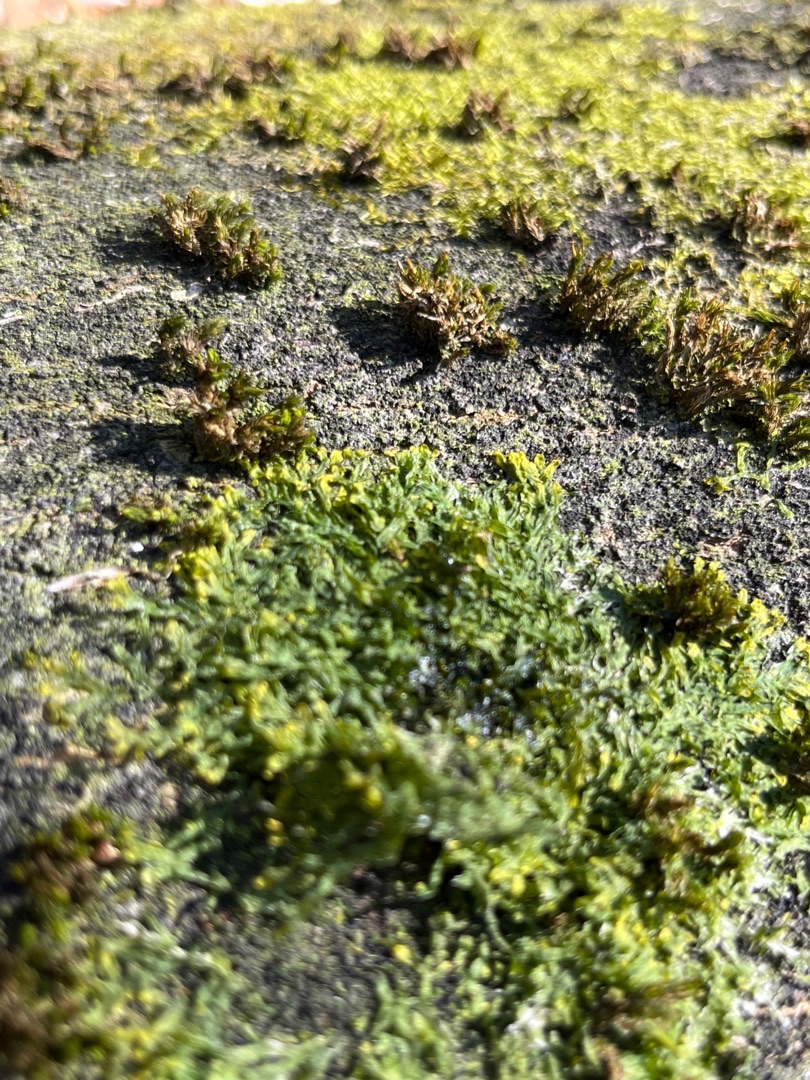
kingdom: Plantae
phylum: Marchantiophyta
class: Jungermanniopsida
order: Metzgeriales
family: Metzgeriaceae
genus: Metzgeria
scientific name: Metzgeria furcata
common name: Almindelig gaffelløv
